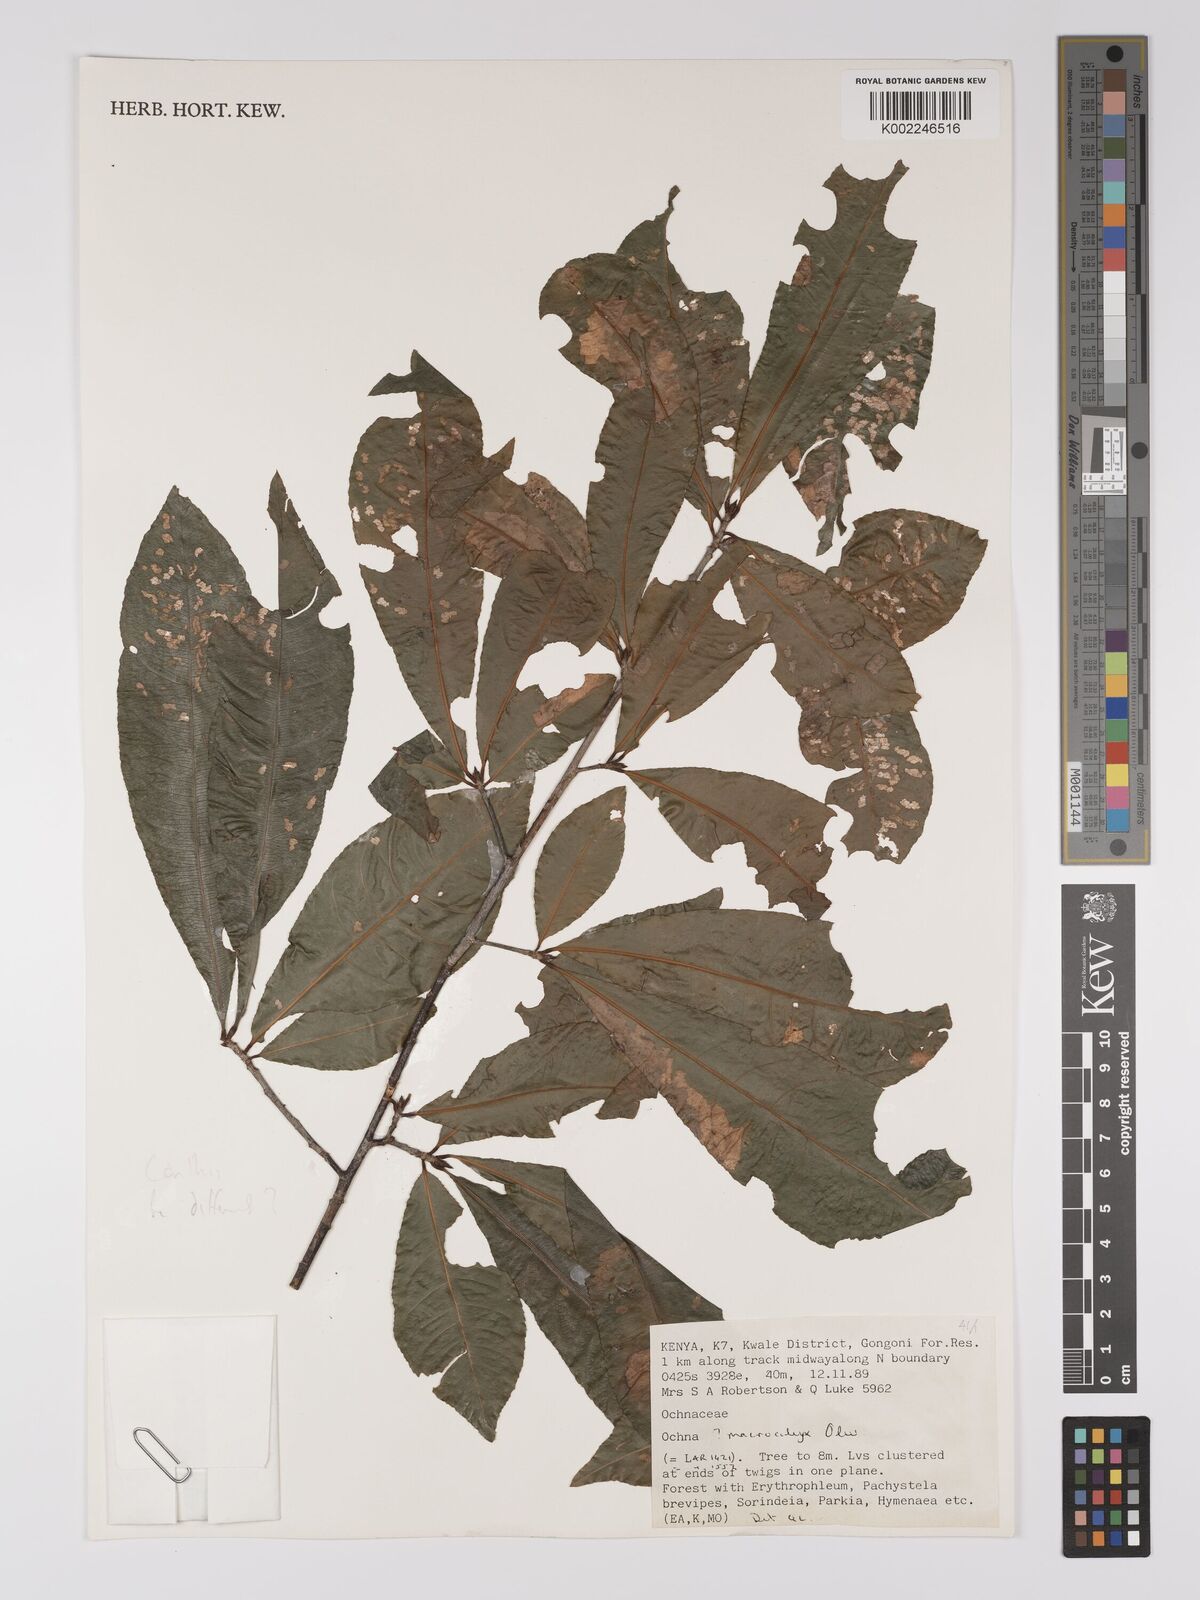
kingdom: Plantae
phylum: Tracheophyta
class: Magnoliopsida
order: Malpighiales
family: Ochnaceae
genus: Ochna
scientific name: Ochna apetala
